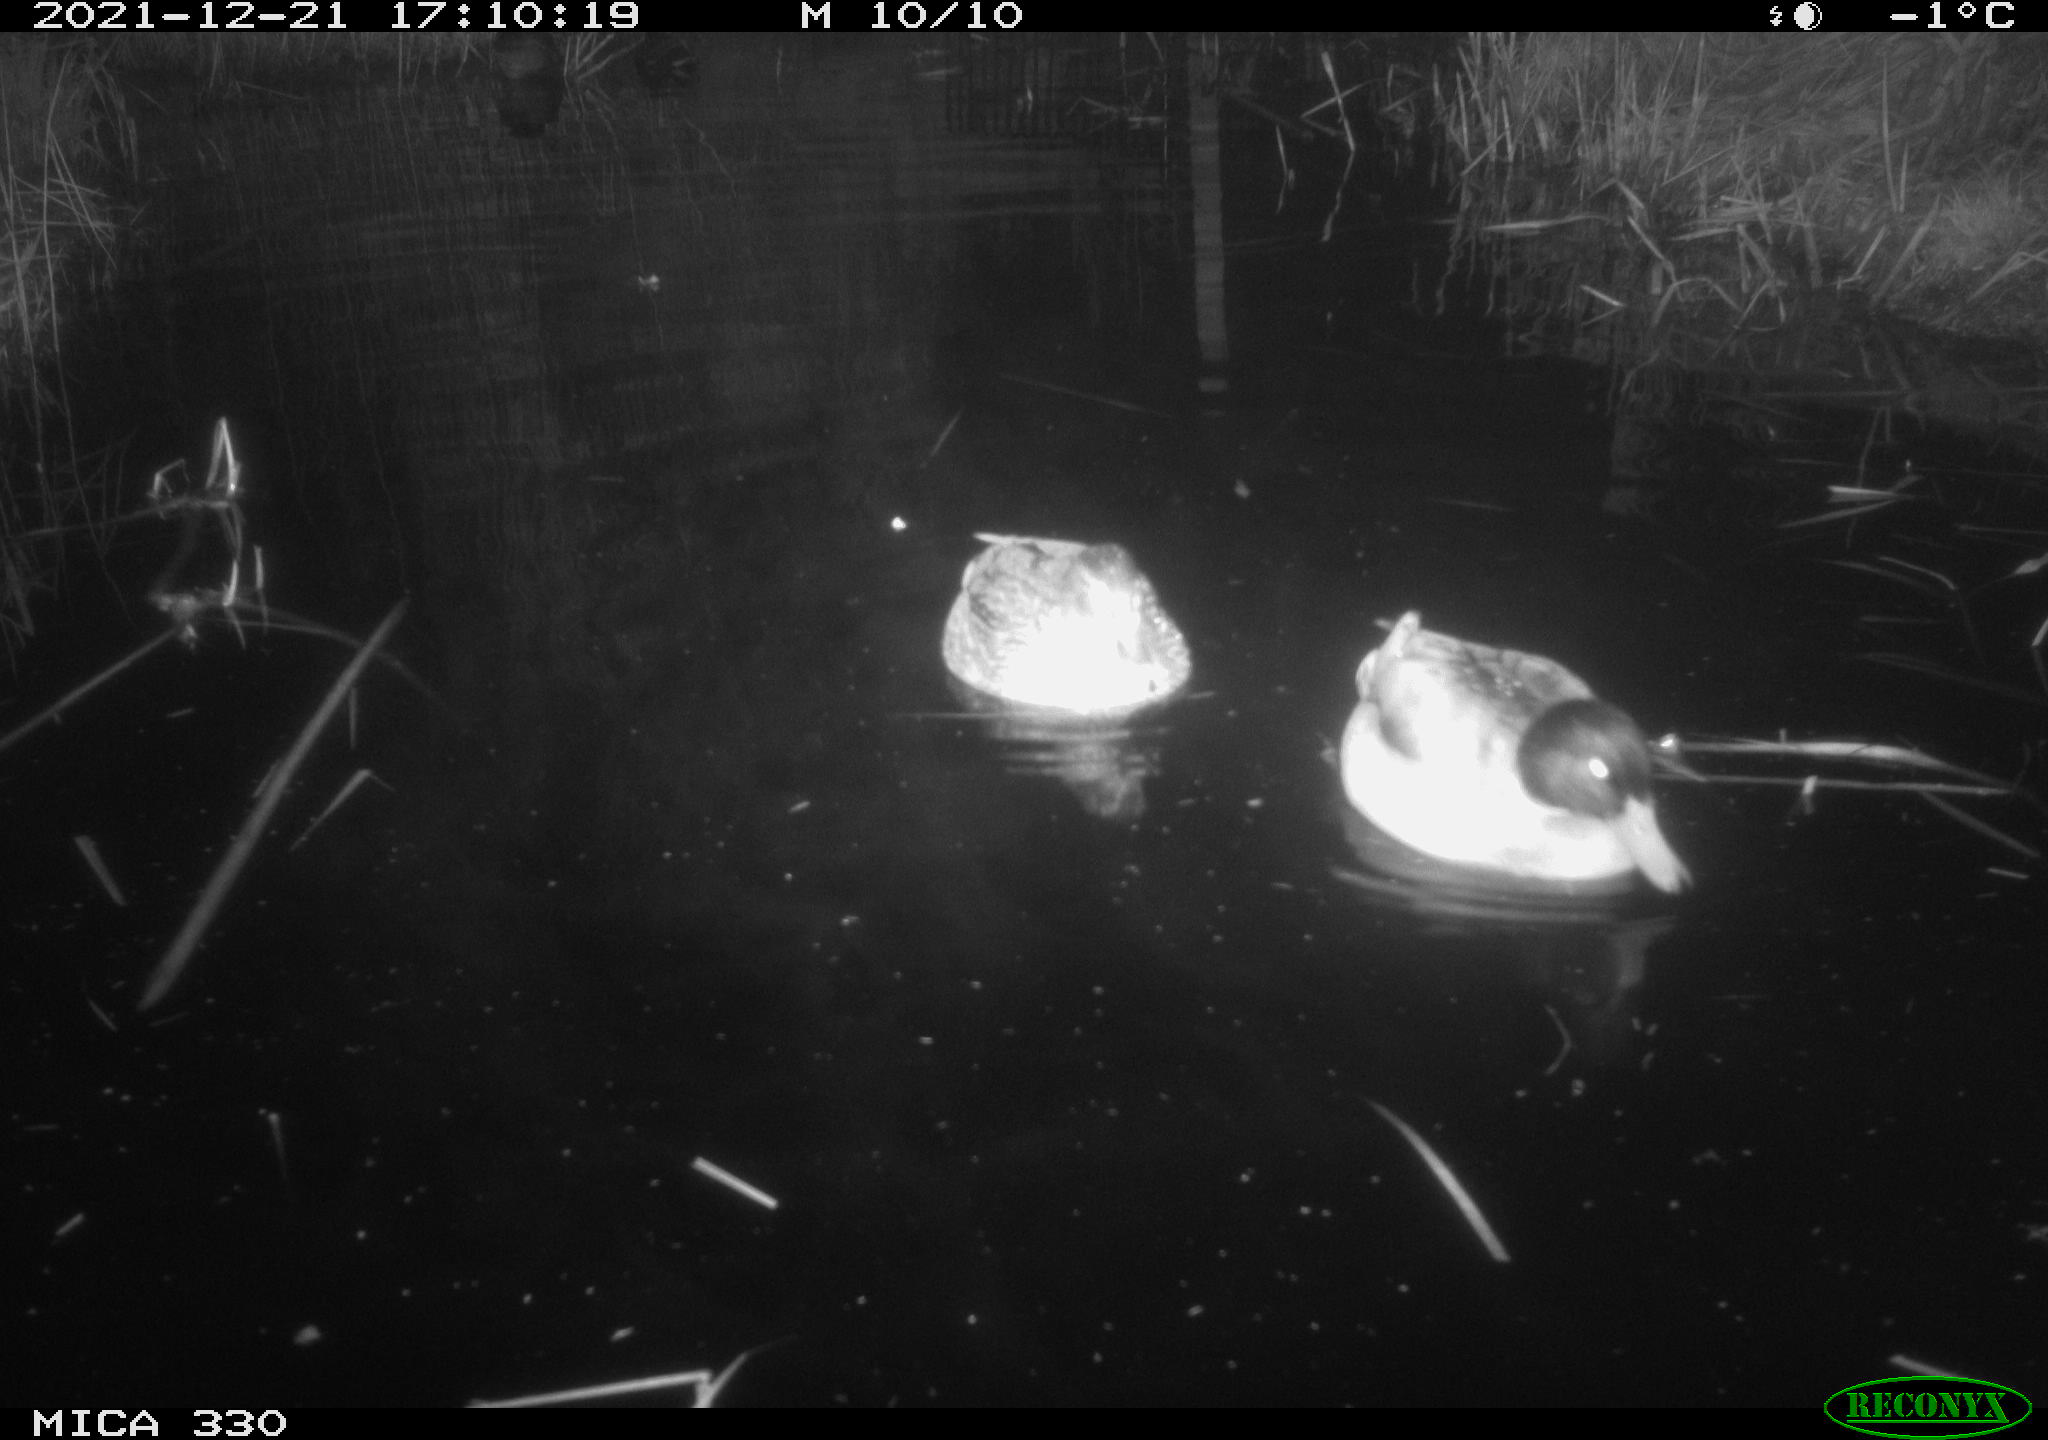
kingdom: Animalia
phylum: Chordata
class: Aves
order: Anseriformes
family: Anatidae
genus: Anas
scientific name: Anas platyrhynchos
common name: Mallard
